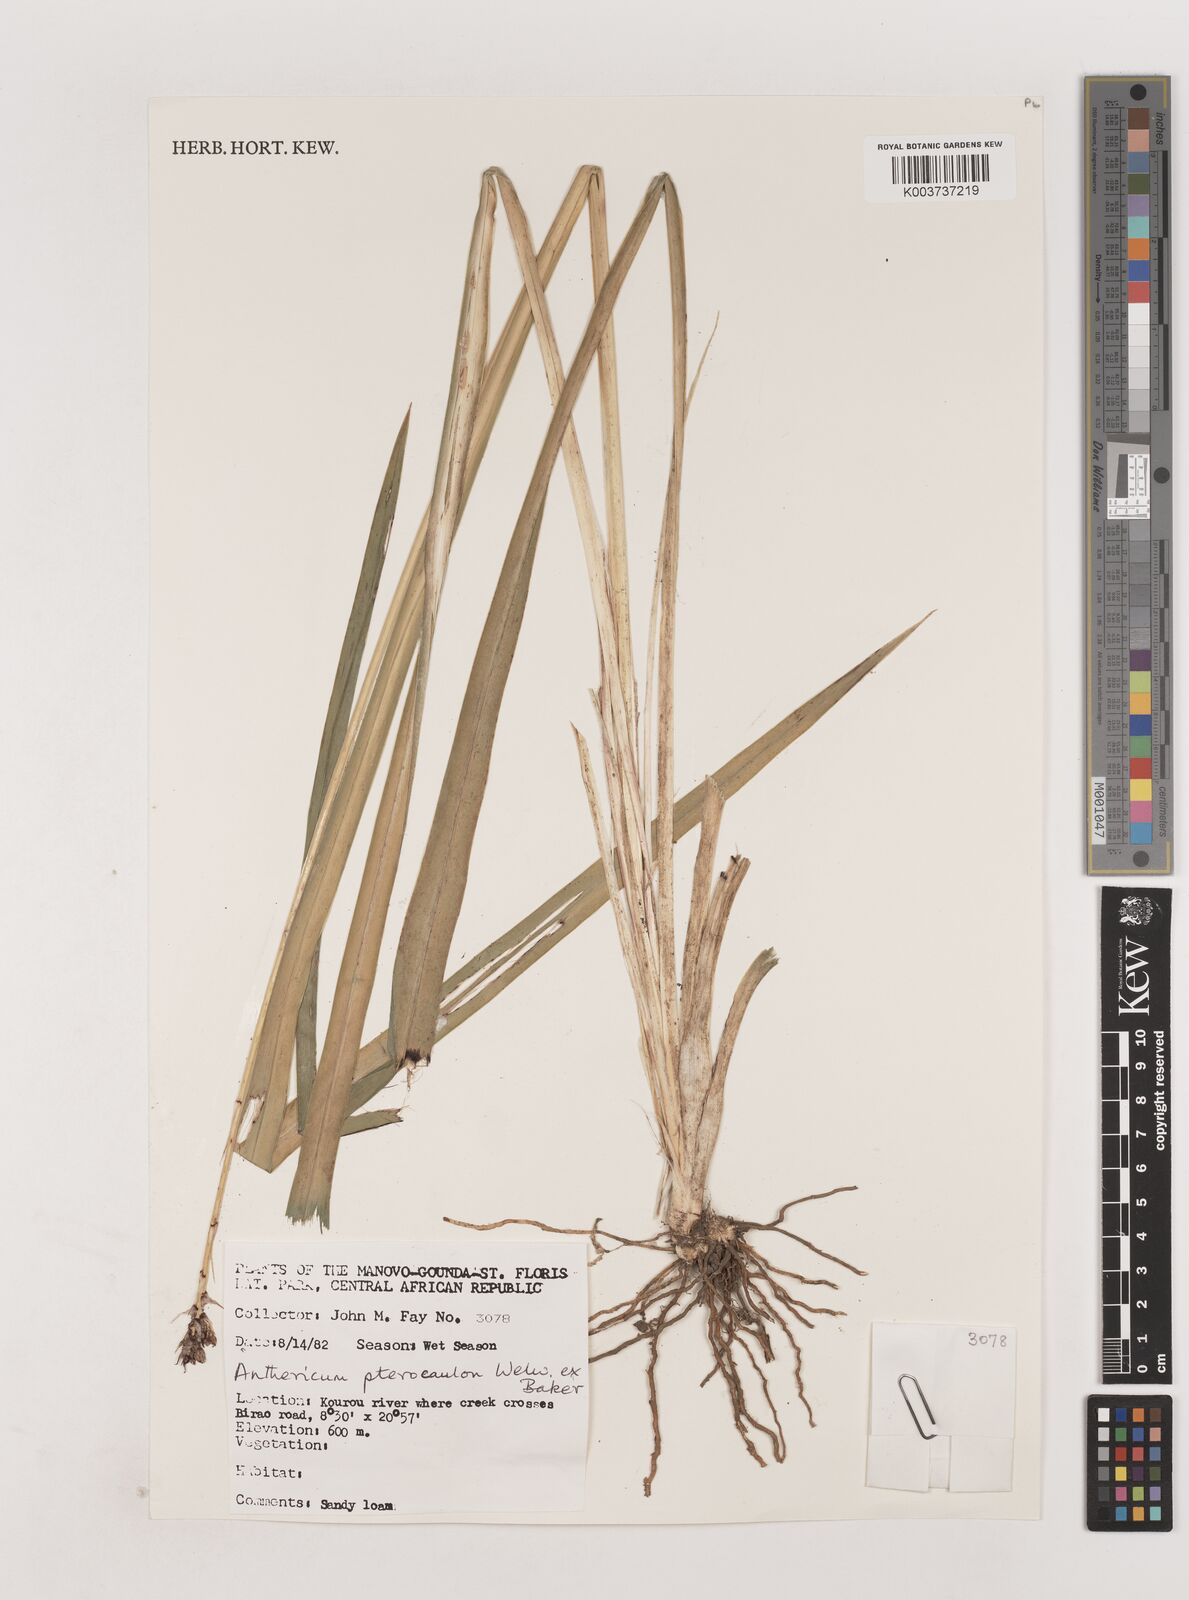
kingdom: Plantae
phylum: Tracheophyta
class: Liliopsida
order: Asparagales
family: Asparagaceae
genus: Chlorophytum
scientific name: Chlorophytum cameronii
